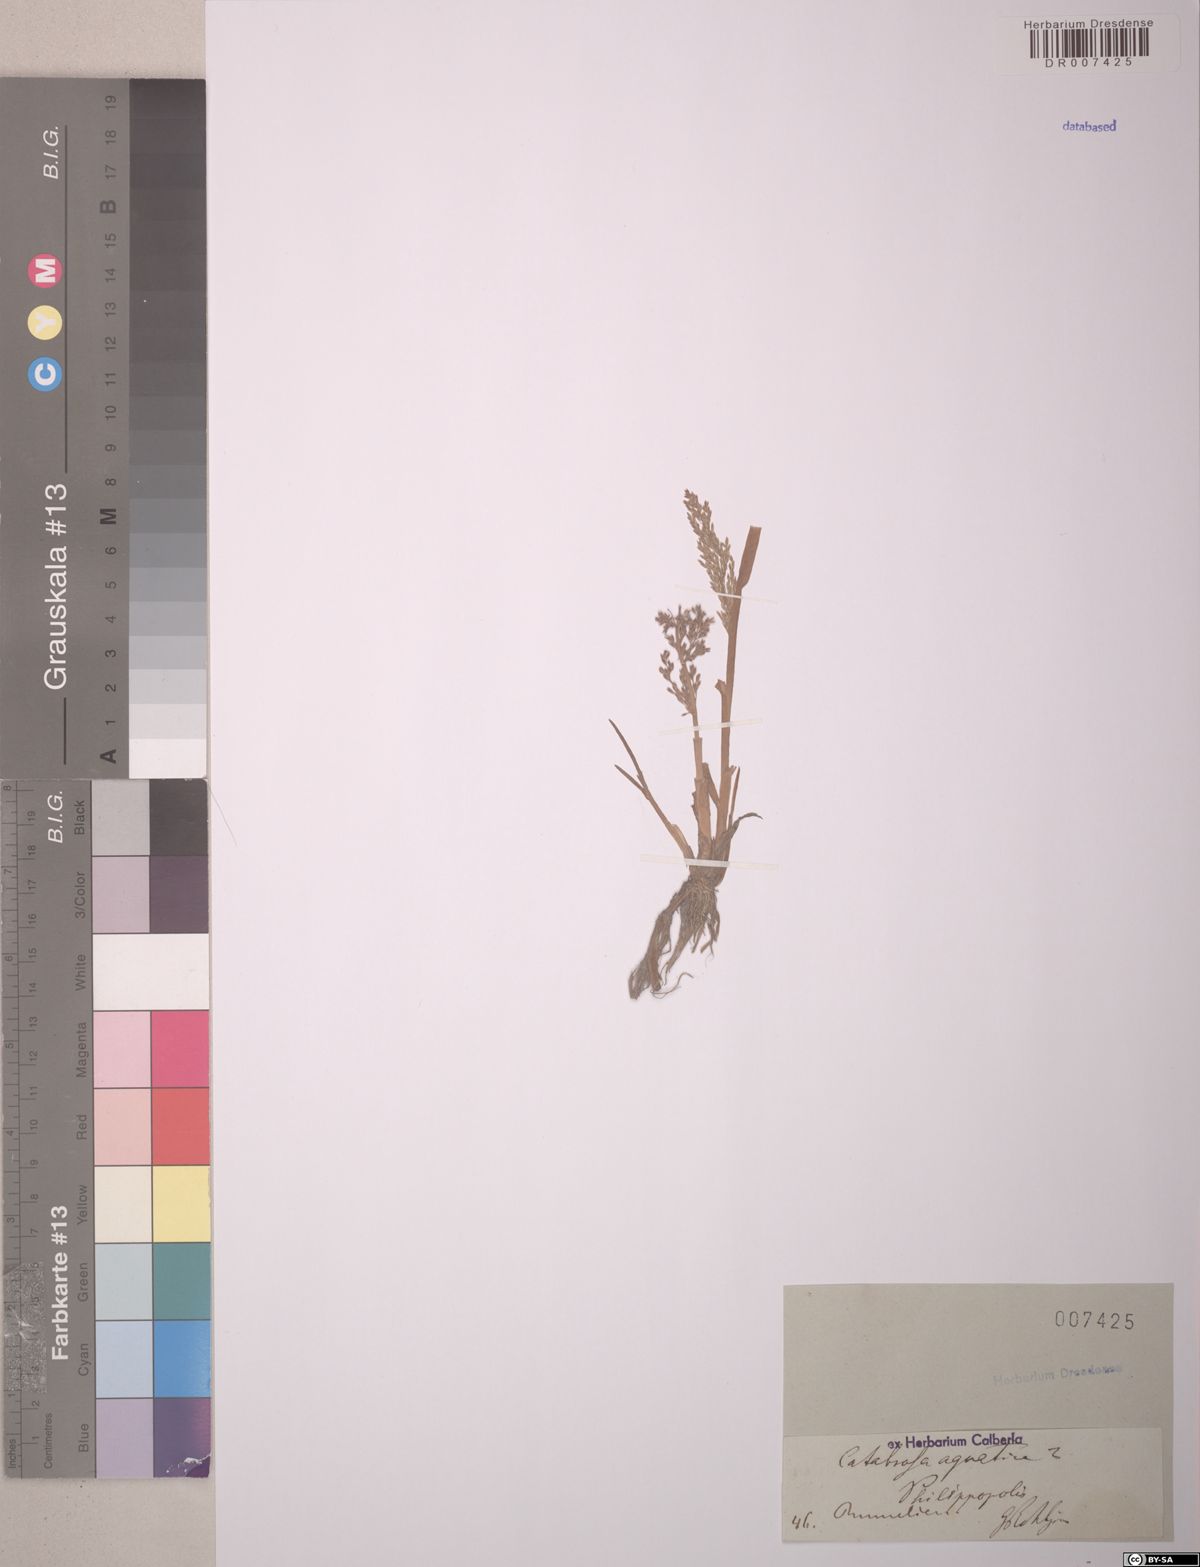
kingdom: Plantae
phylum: Tracheophyta
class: Liliopsida
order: Poales
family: Poaceae
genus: Catabrosa
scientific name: Catabrosa aquatica
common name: Whorl-grass
